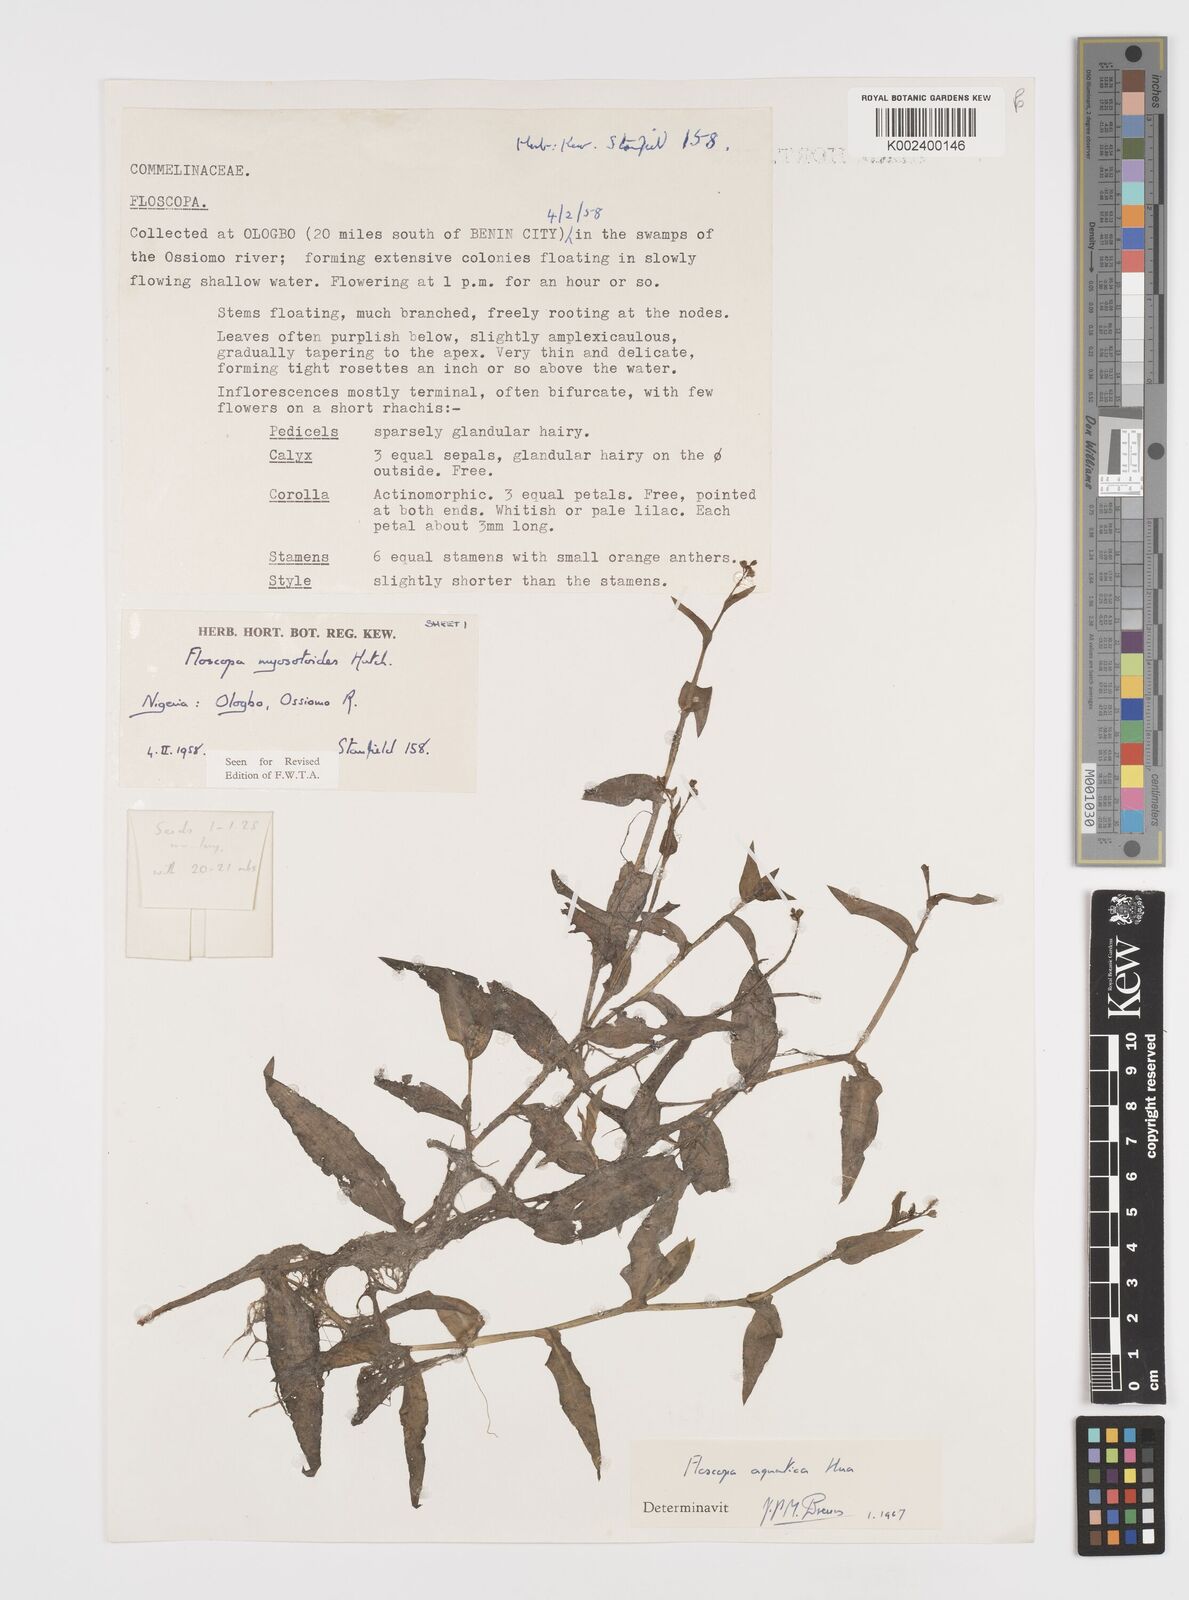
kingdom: Plantae
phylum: Tracheophyta
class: Liliopsida
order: Commelinales
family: Commelinaceae
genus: Floscopa
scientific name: Floscopa aquatica
